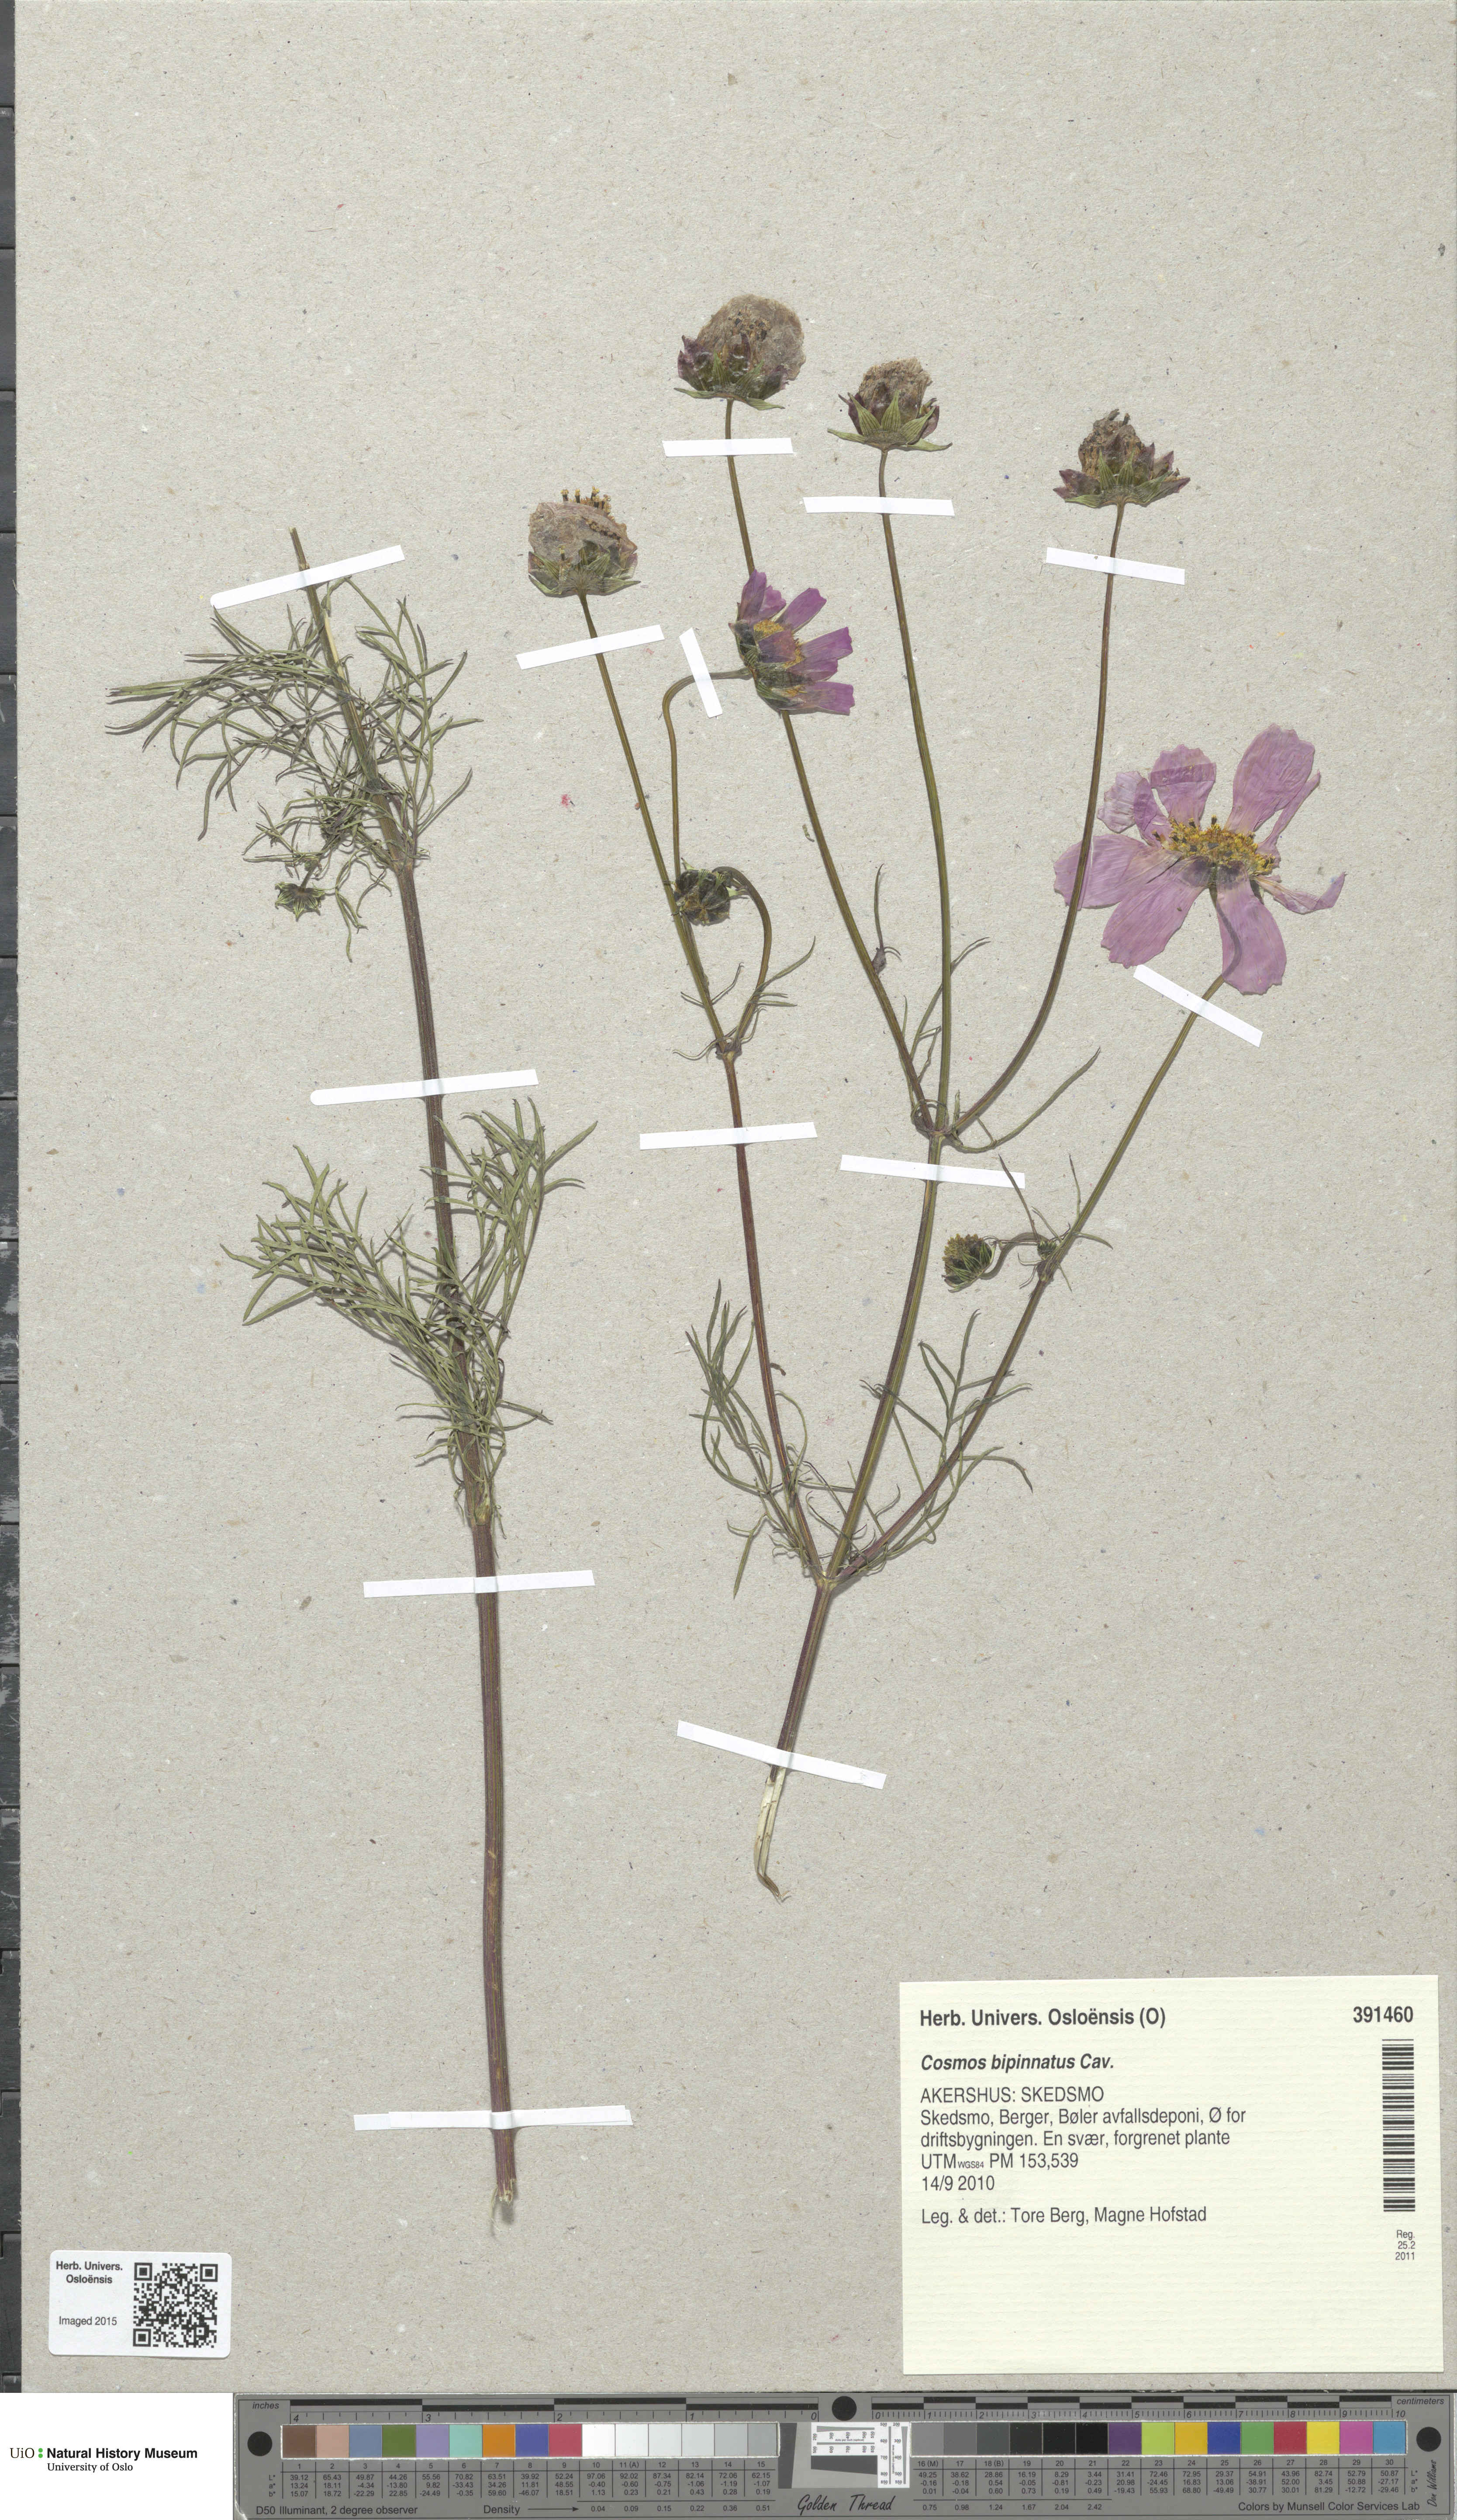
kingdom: Plantae
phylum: Tracheophyta
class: Magnoliopsida
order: Asterales
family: Asteraceae
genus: Cosmos
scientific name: Cosmos bipinnatus
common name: Garden cosmos
